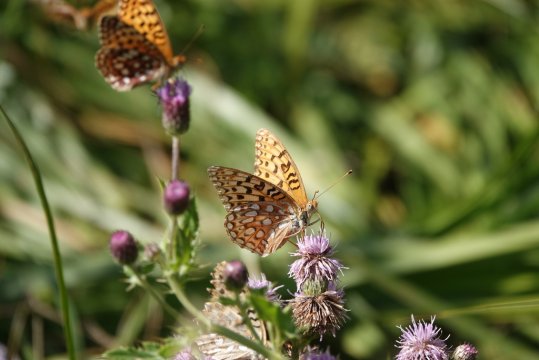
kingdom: Animalia
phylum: Arthropoda
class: Insecta
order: Lepidoptera
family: Nymphalidae
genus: Speyeria
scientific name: Speyeria
